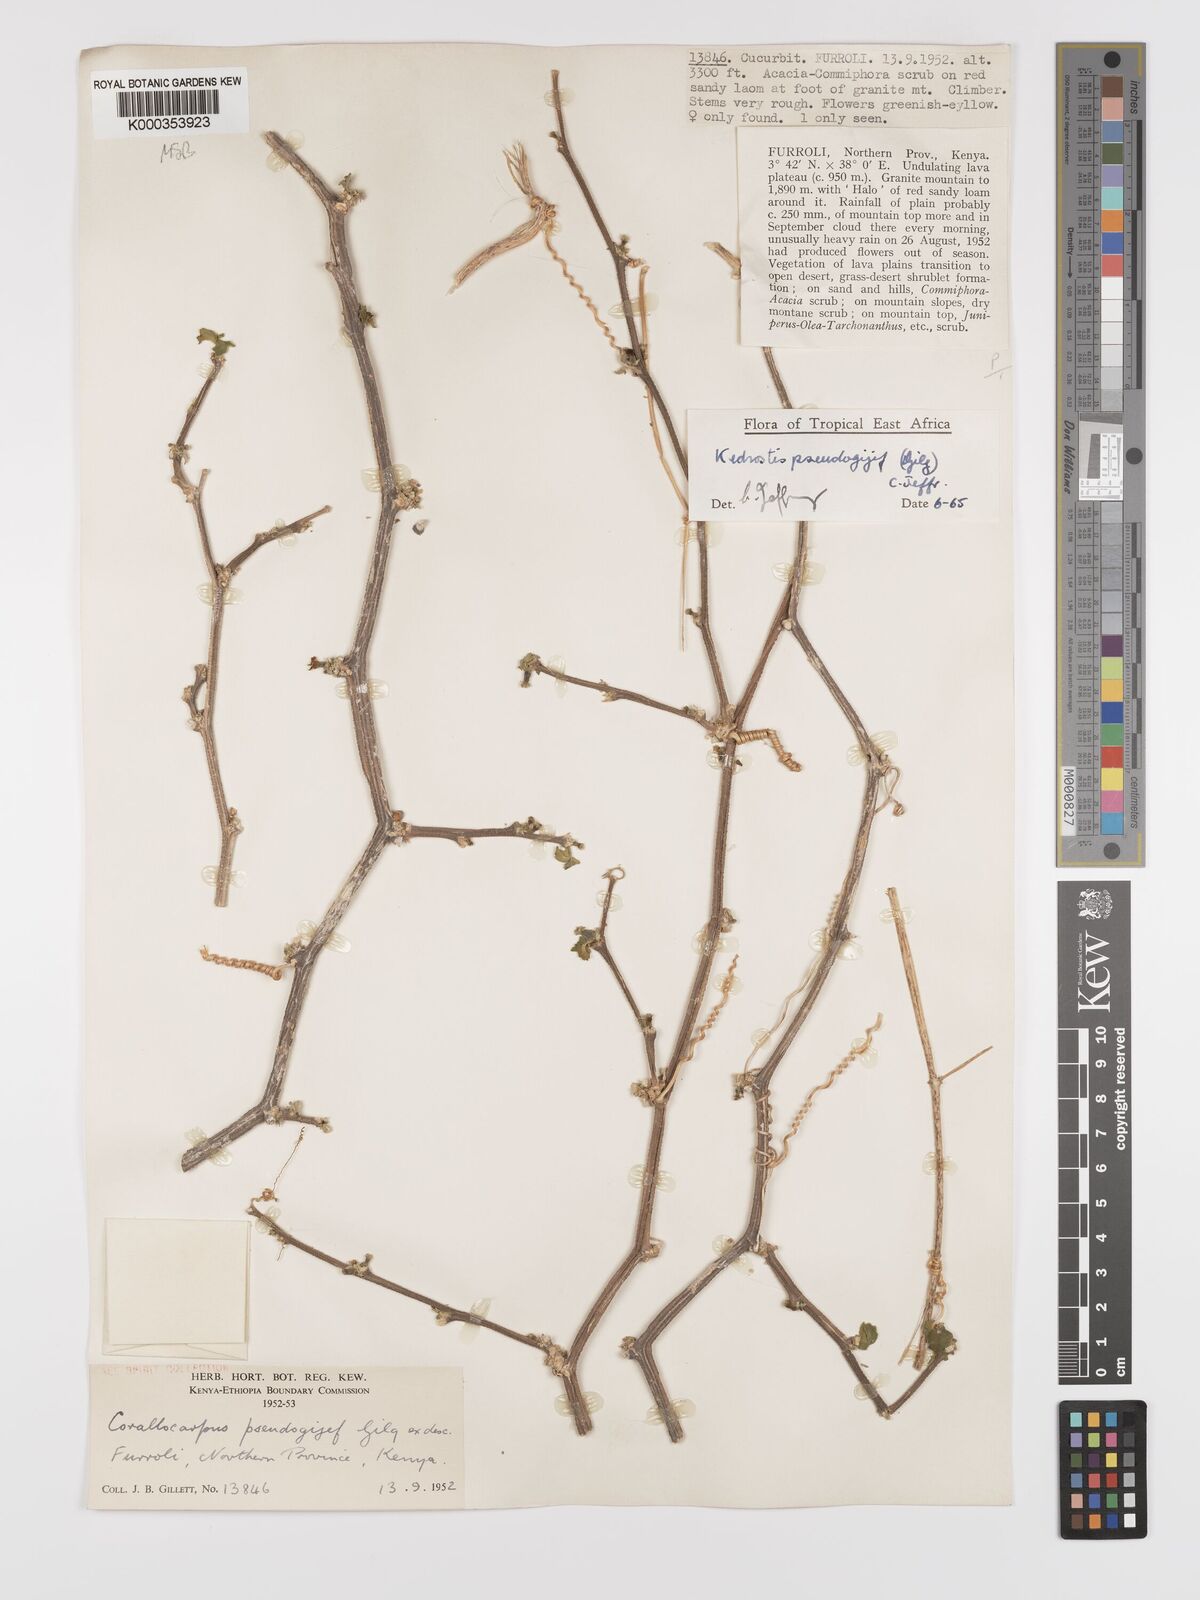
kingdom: Plantae
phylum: Tracheophyta
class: Magnoliopsida
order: Cucurbitales
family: Cucurbitaceae
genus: Kedrostis
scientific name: Kedrostis pseudogijef
